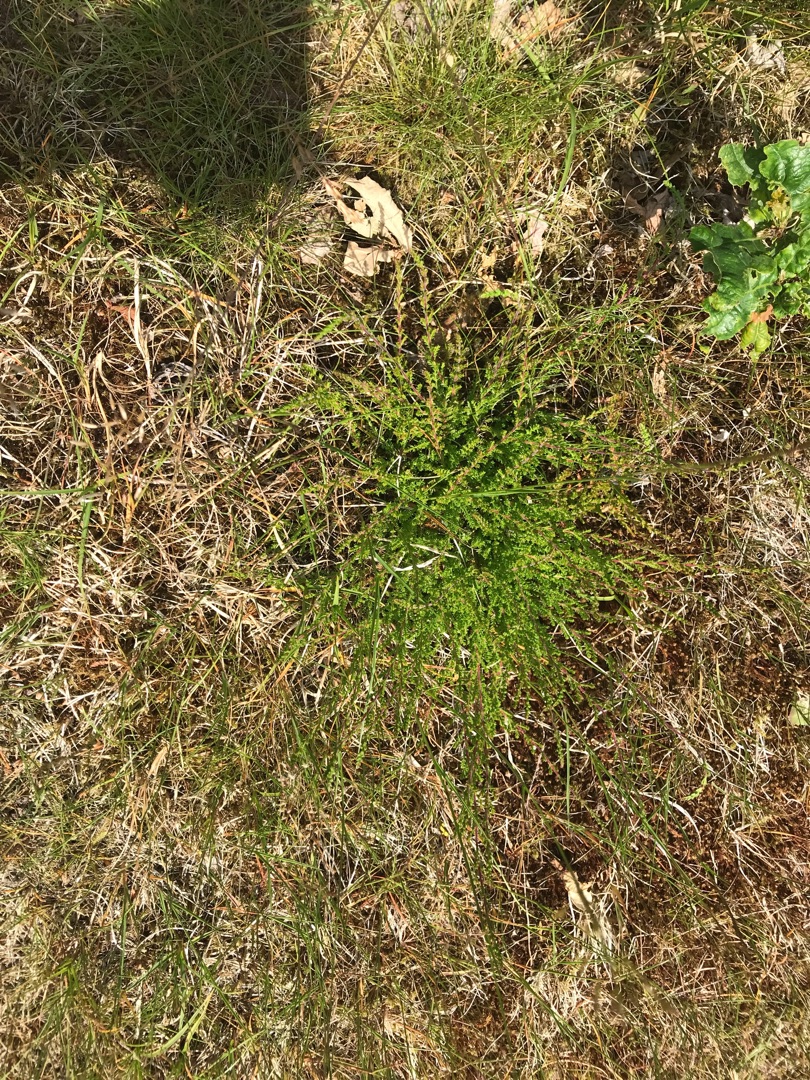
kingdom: Plantae
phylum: Tracheophyta
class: Magnoliopsida
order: Ericales
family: Ericaceae
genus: Calluna
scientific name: Calluna vulgaris
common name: Hedelyng
